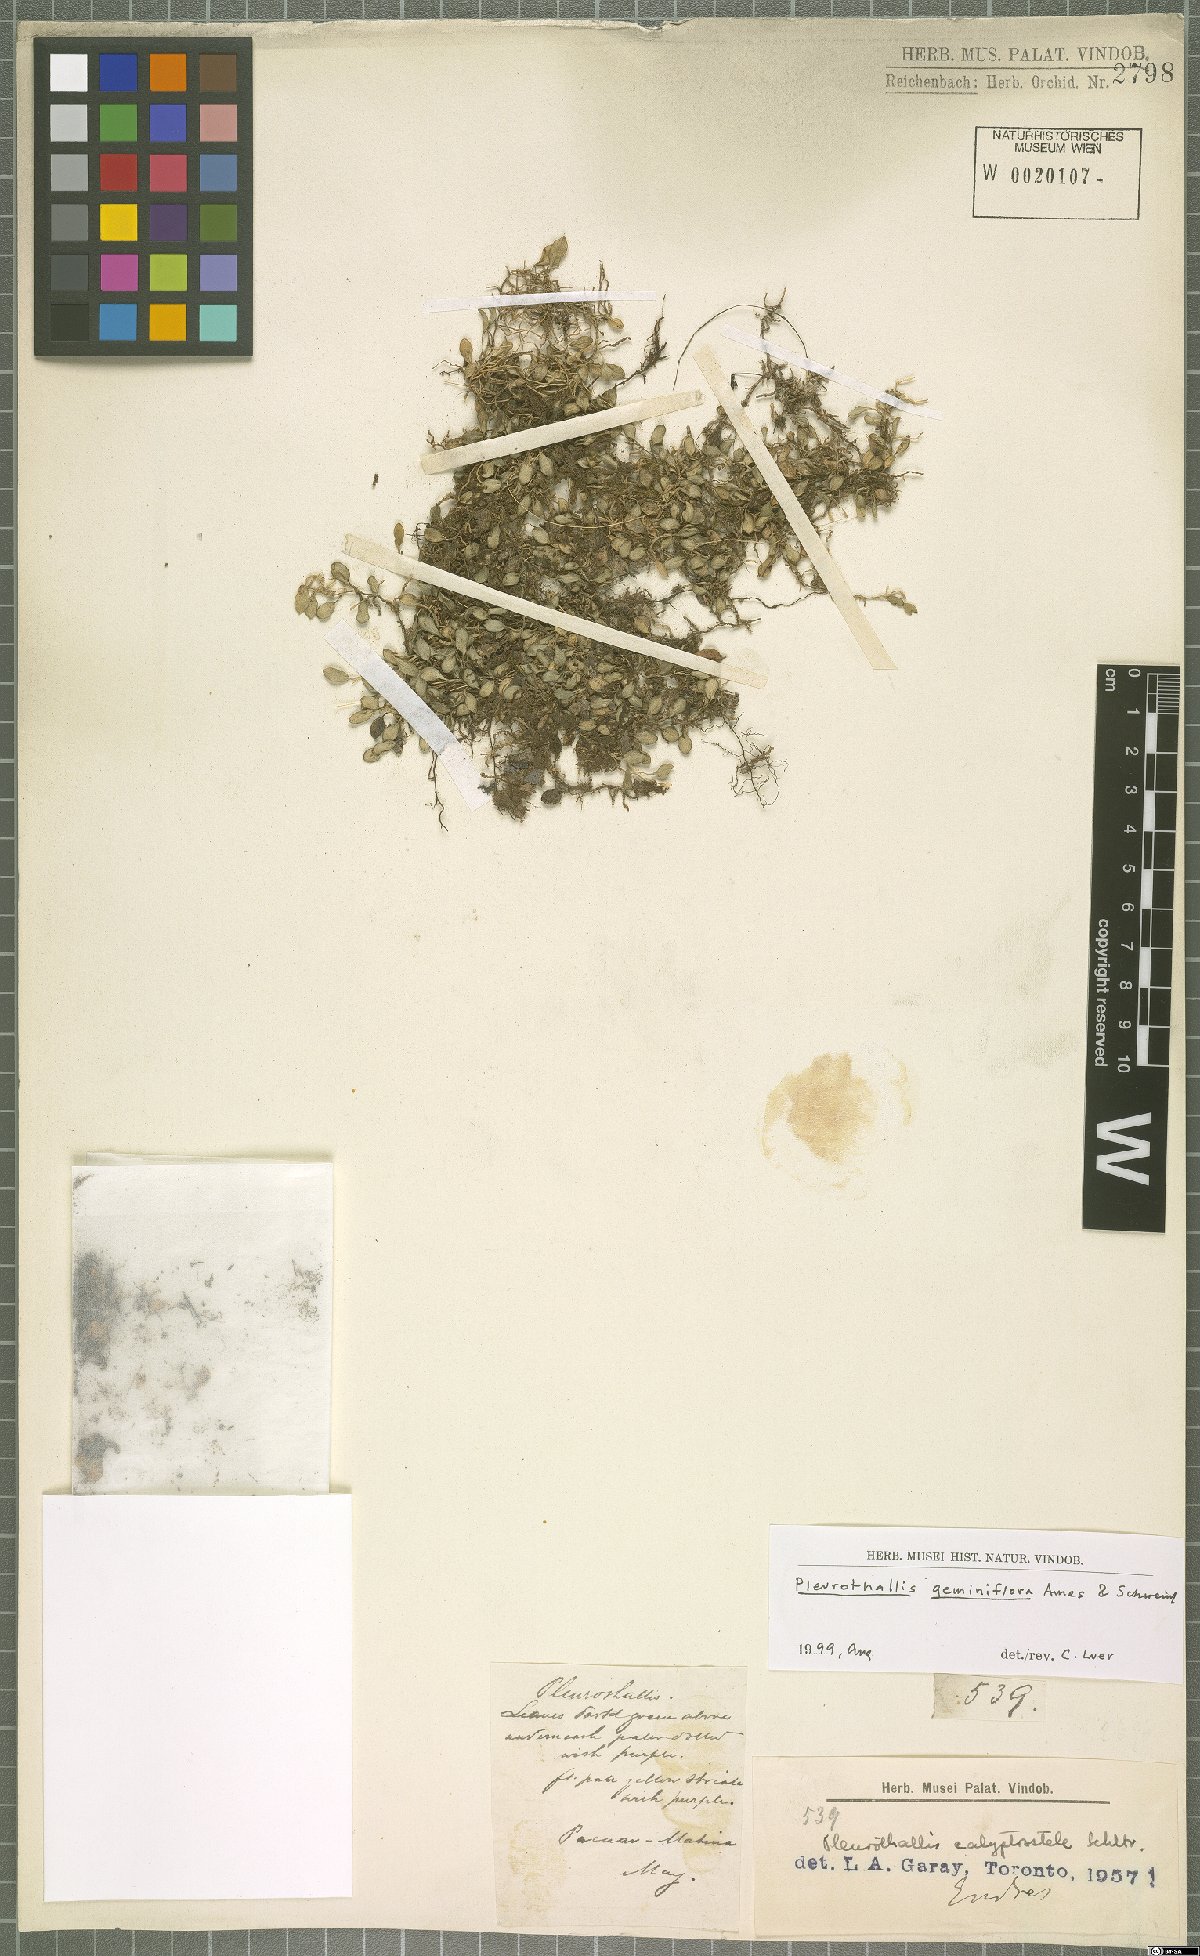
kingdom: Plantae
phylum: Tracheophyta
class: Liliopsida
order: Asparagales
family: Orchidaceae
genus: Specklinia
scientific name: Specklinia calyptrostele
